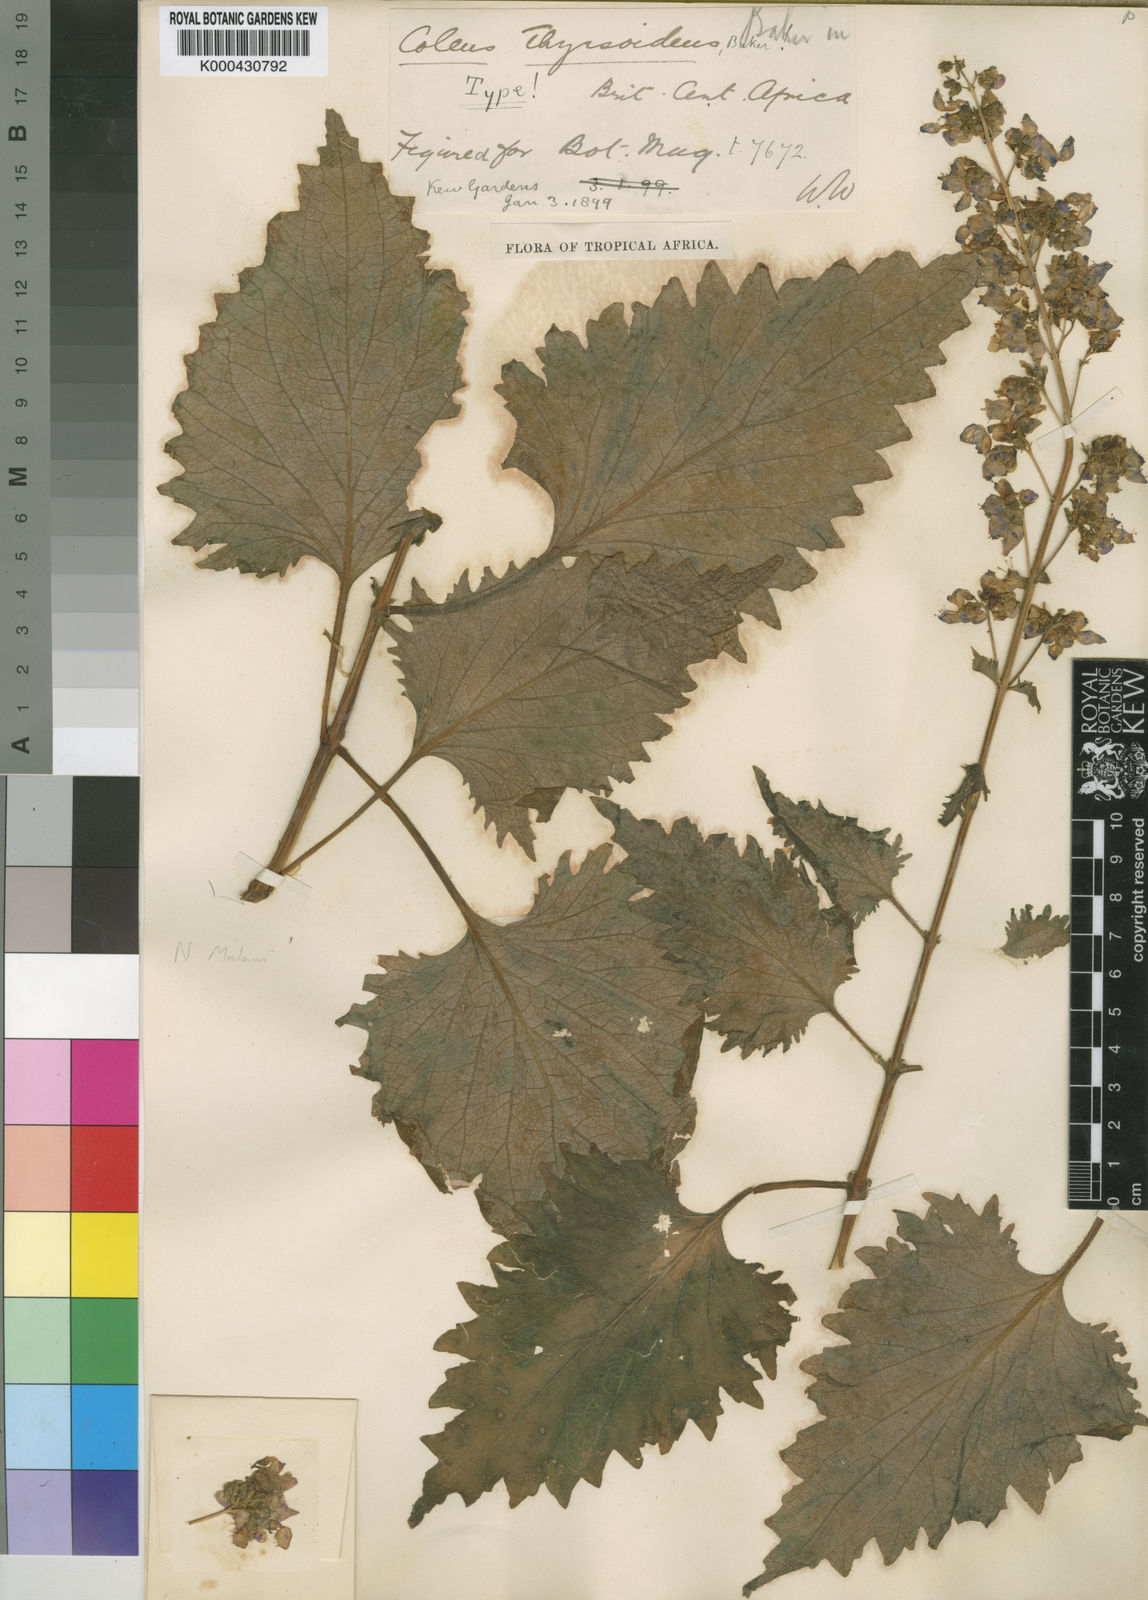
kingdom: Plantae
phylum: Tracheophyta
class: Magnoliopsida
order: Lamiales
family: Lamiaceae
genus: Coleus
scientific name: Coleus thyrsoideus
